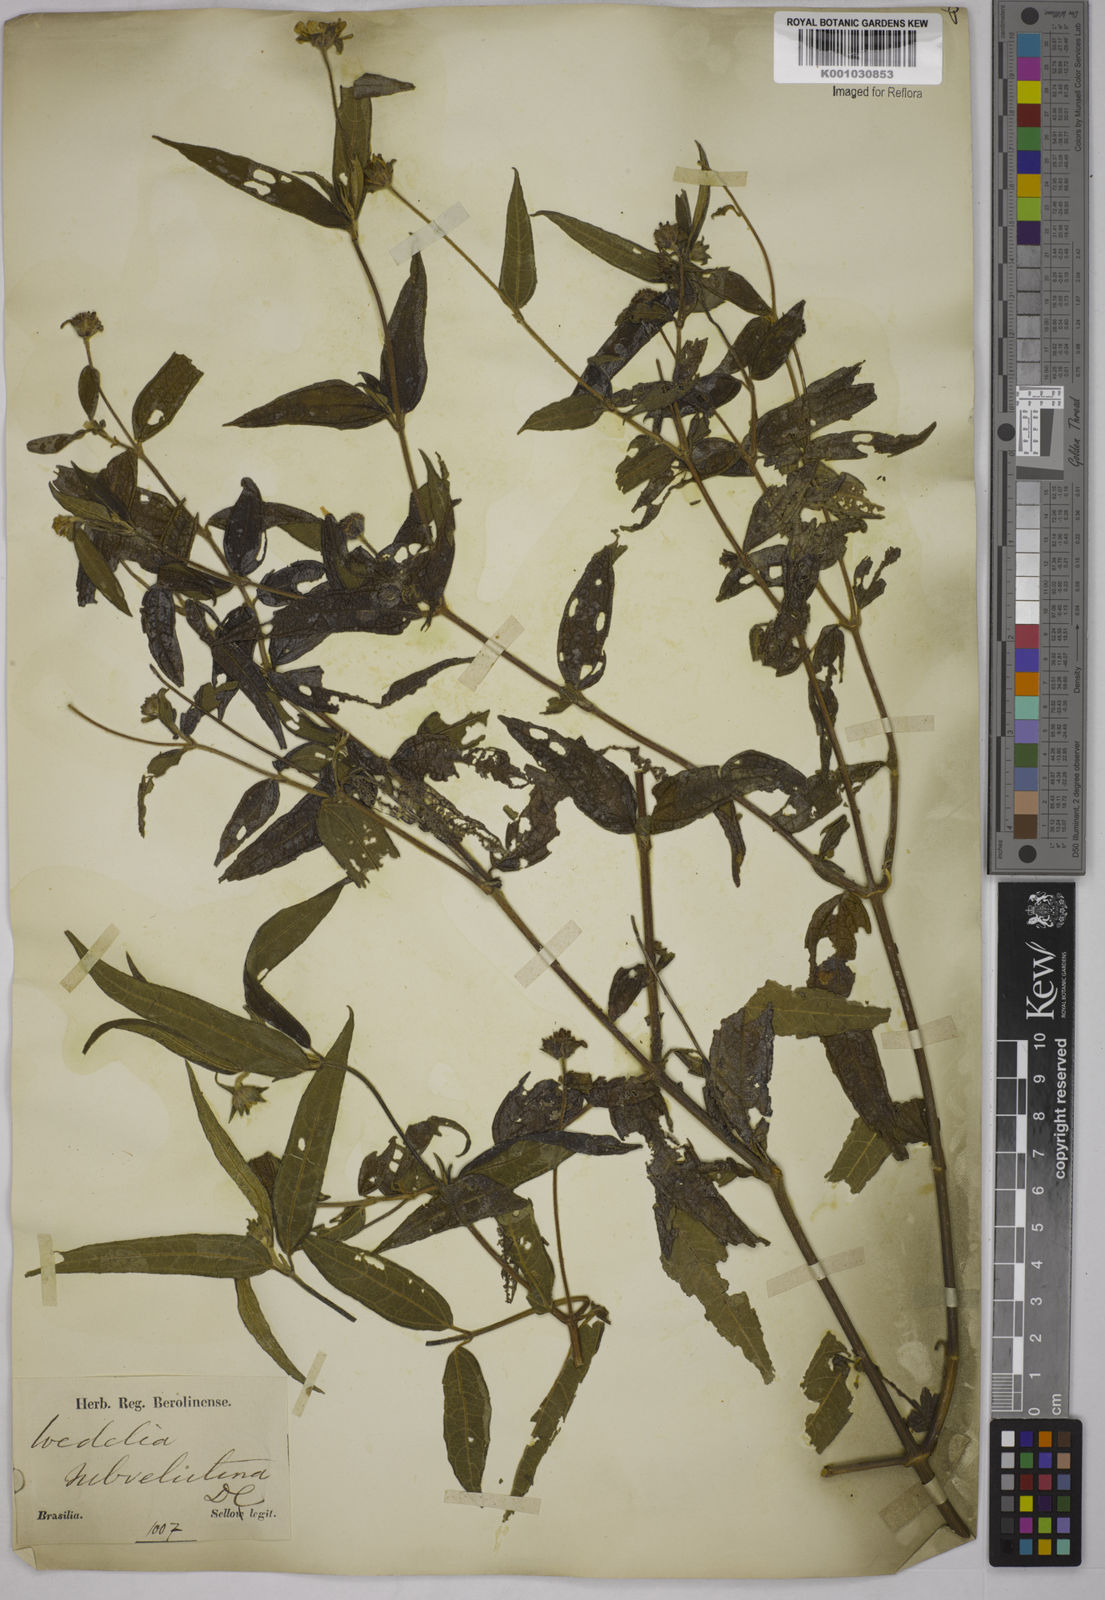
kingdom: Plantae
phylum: Tracheophyta
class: Magnoliopsida
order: Asterales
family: Asteraceae
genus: Wedelia
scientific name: Wedelia subvelutina
